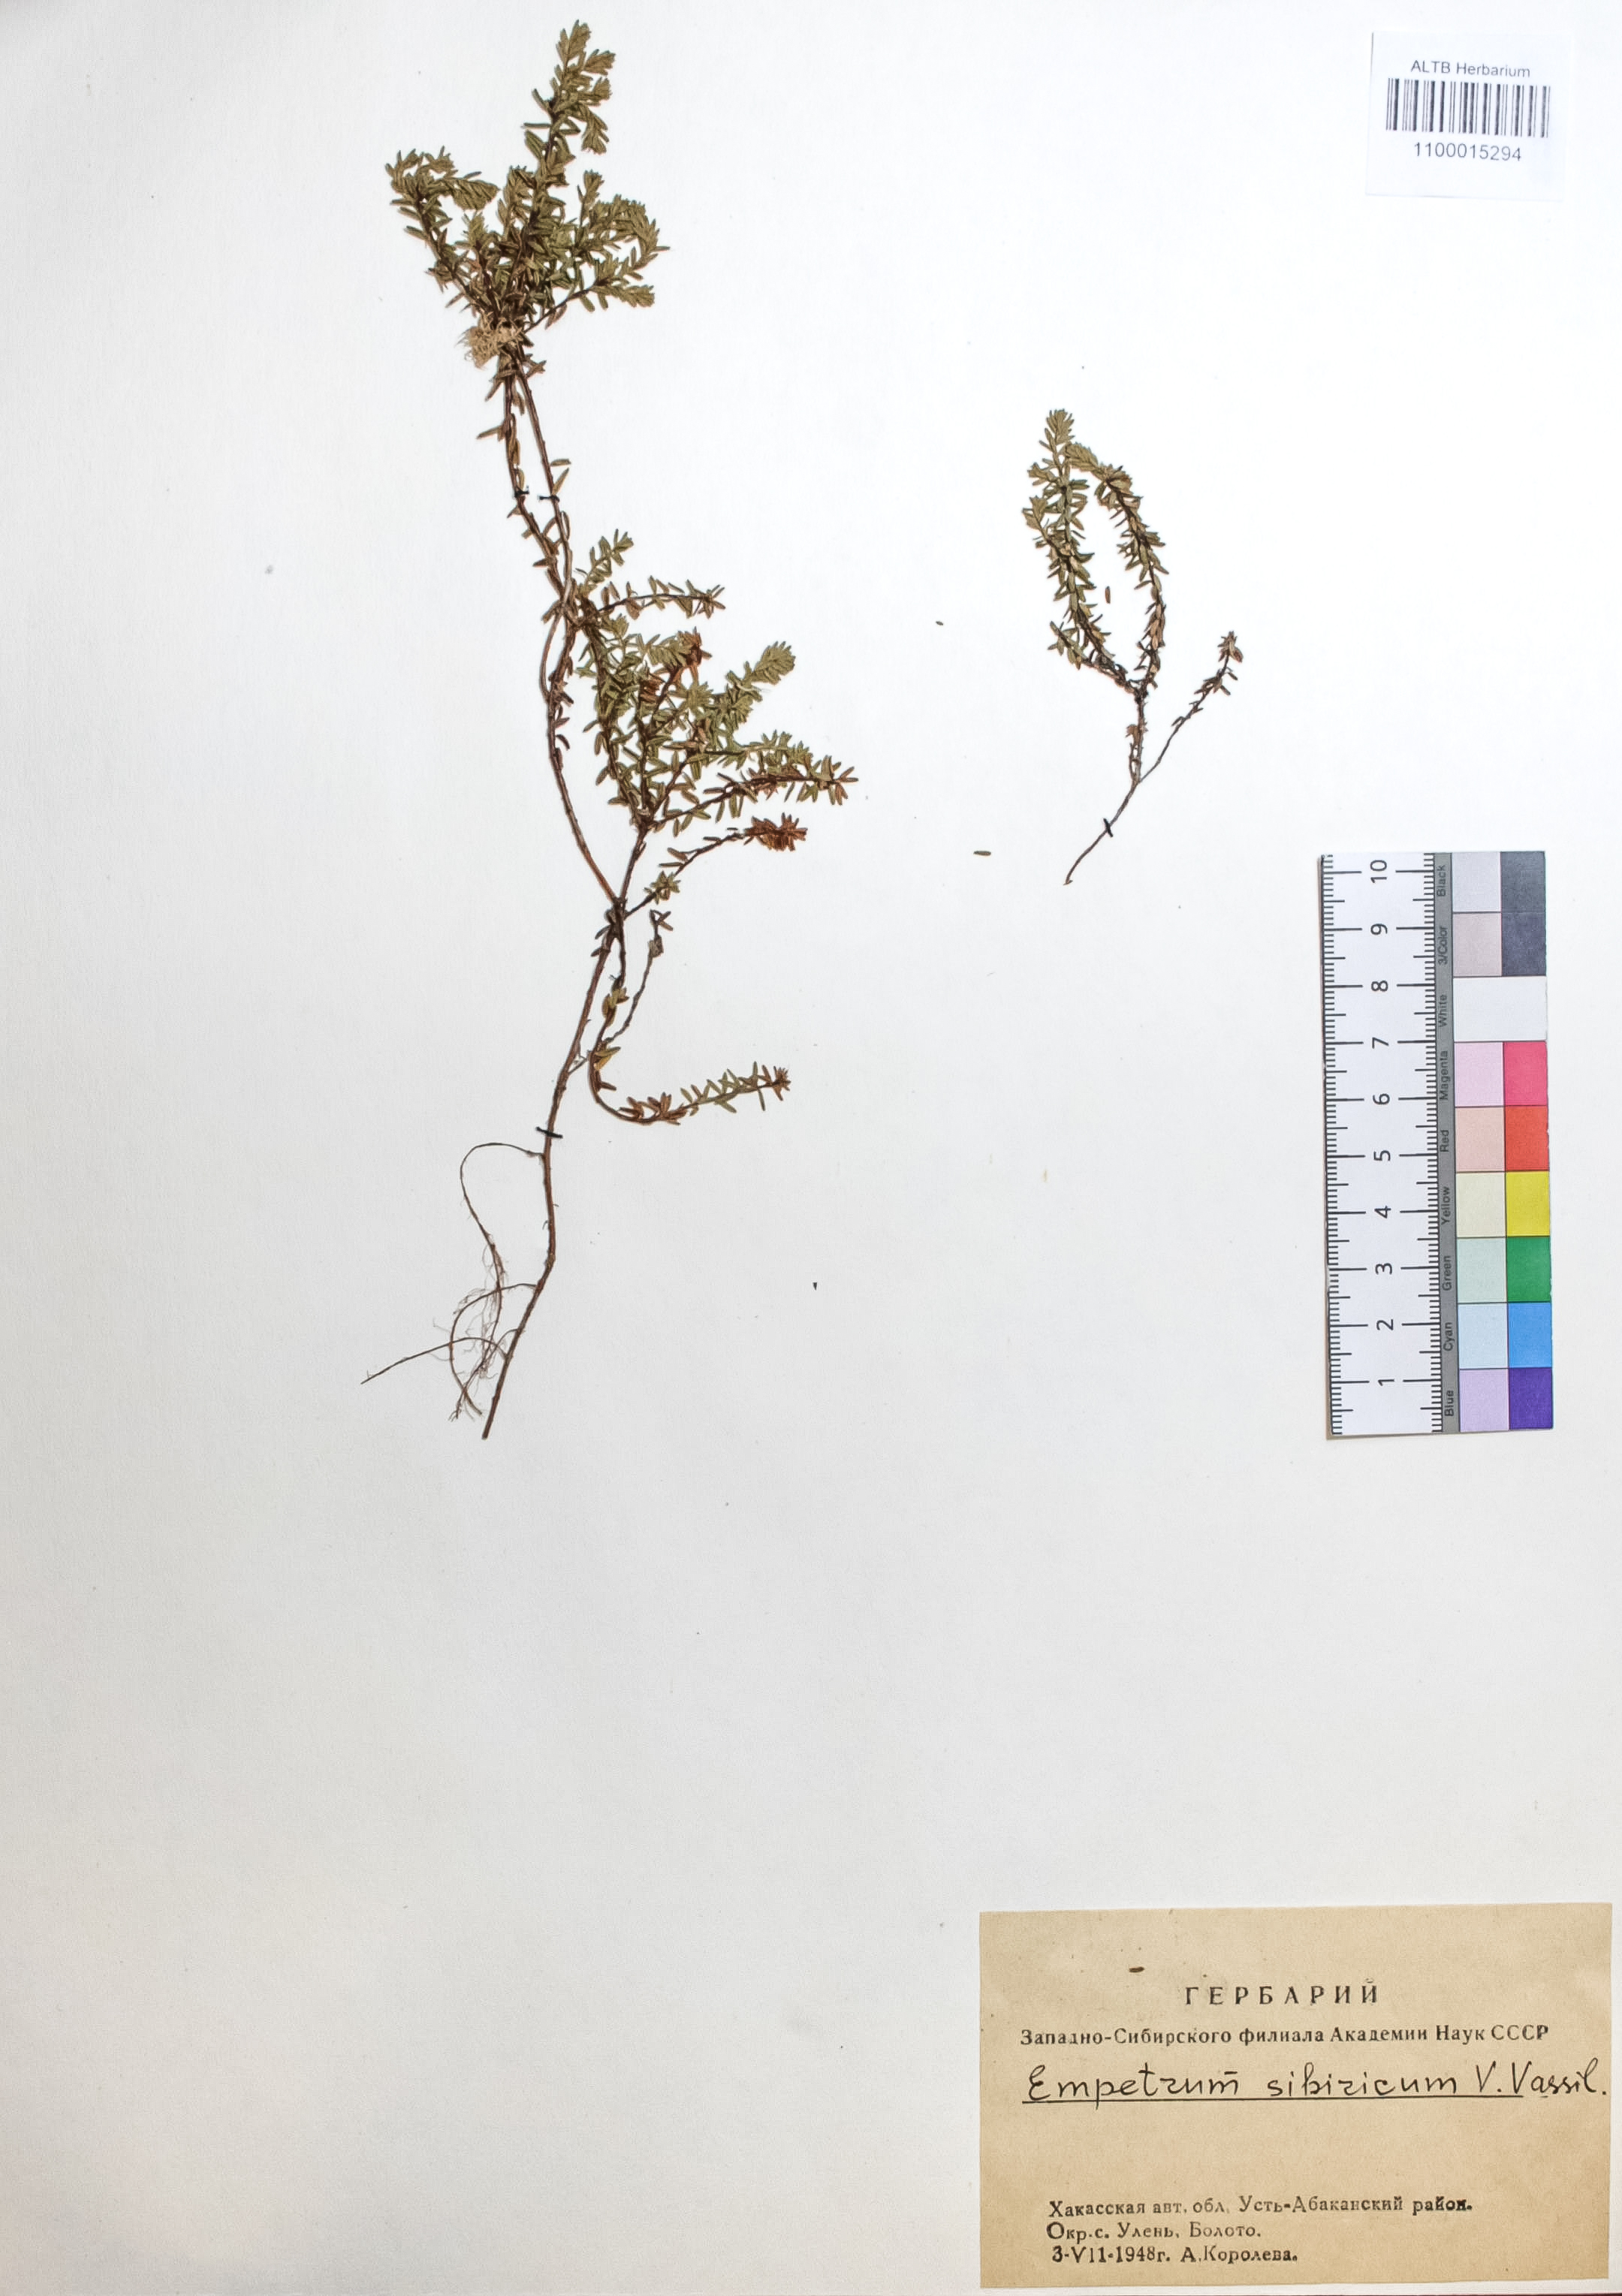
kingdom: Plantae
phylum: Tracheophyta
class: Magnoliopsida
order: Ericales
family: Ericaceae
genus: Empetrum
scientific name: Empetrum nigrum
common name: Black crowberry
